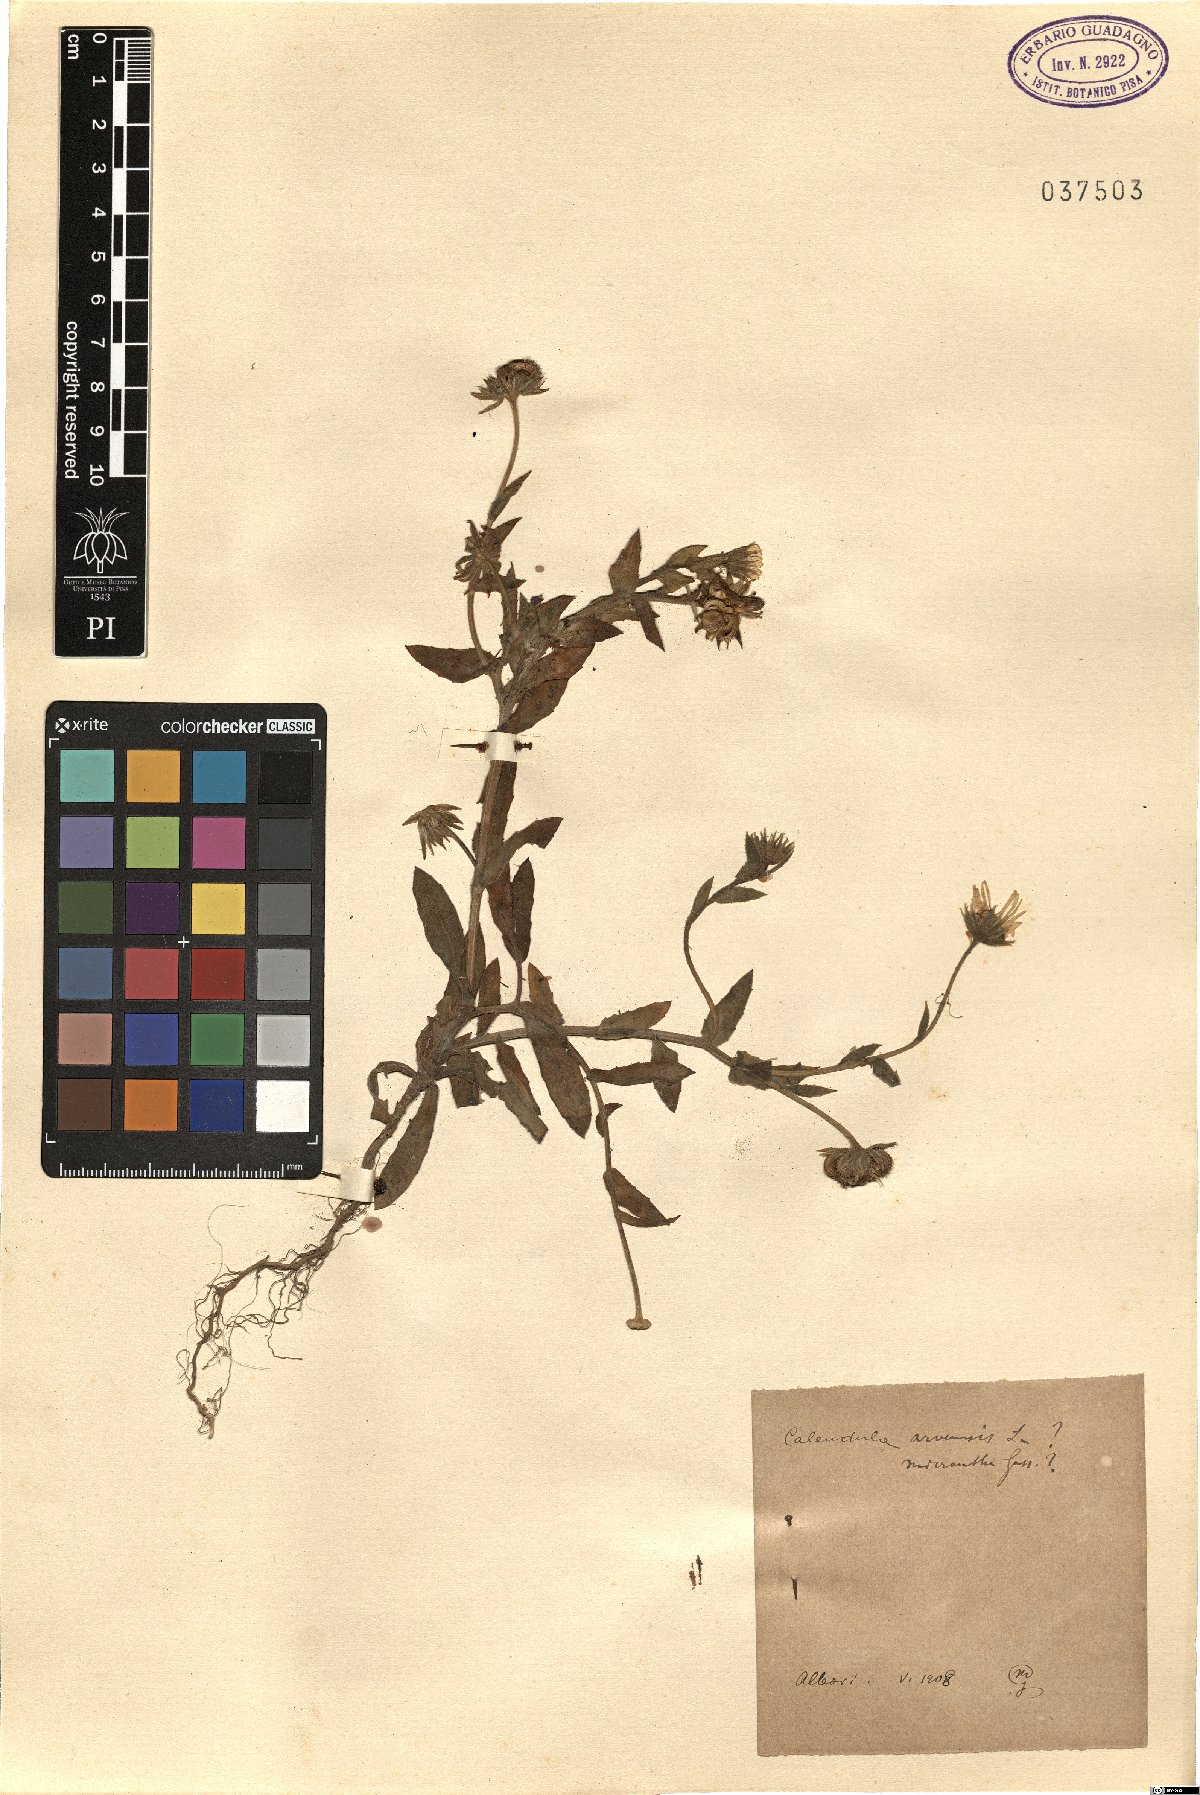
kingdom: Plantae
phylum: Tracheophyta
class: Magnoliopsida
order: Asterales
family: Asteraceae
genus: Calendula
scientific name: Calendula arvensis
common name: Field marigold
